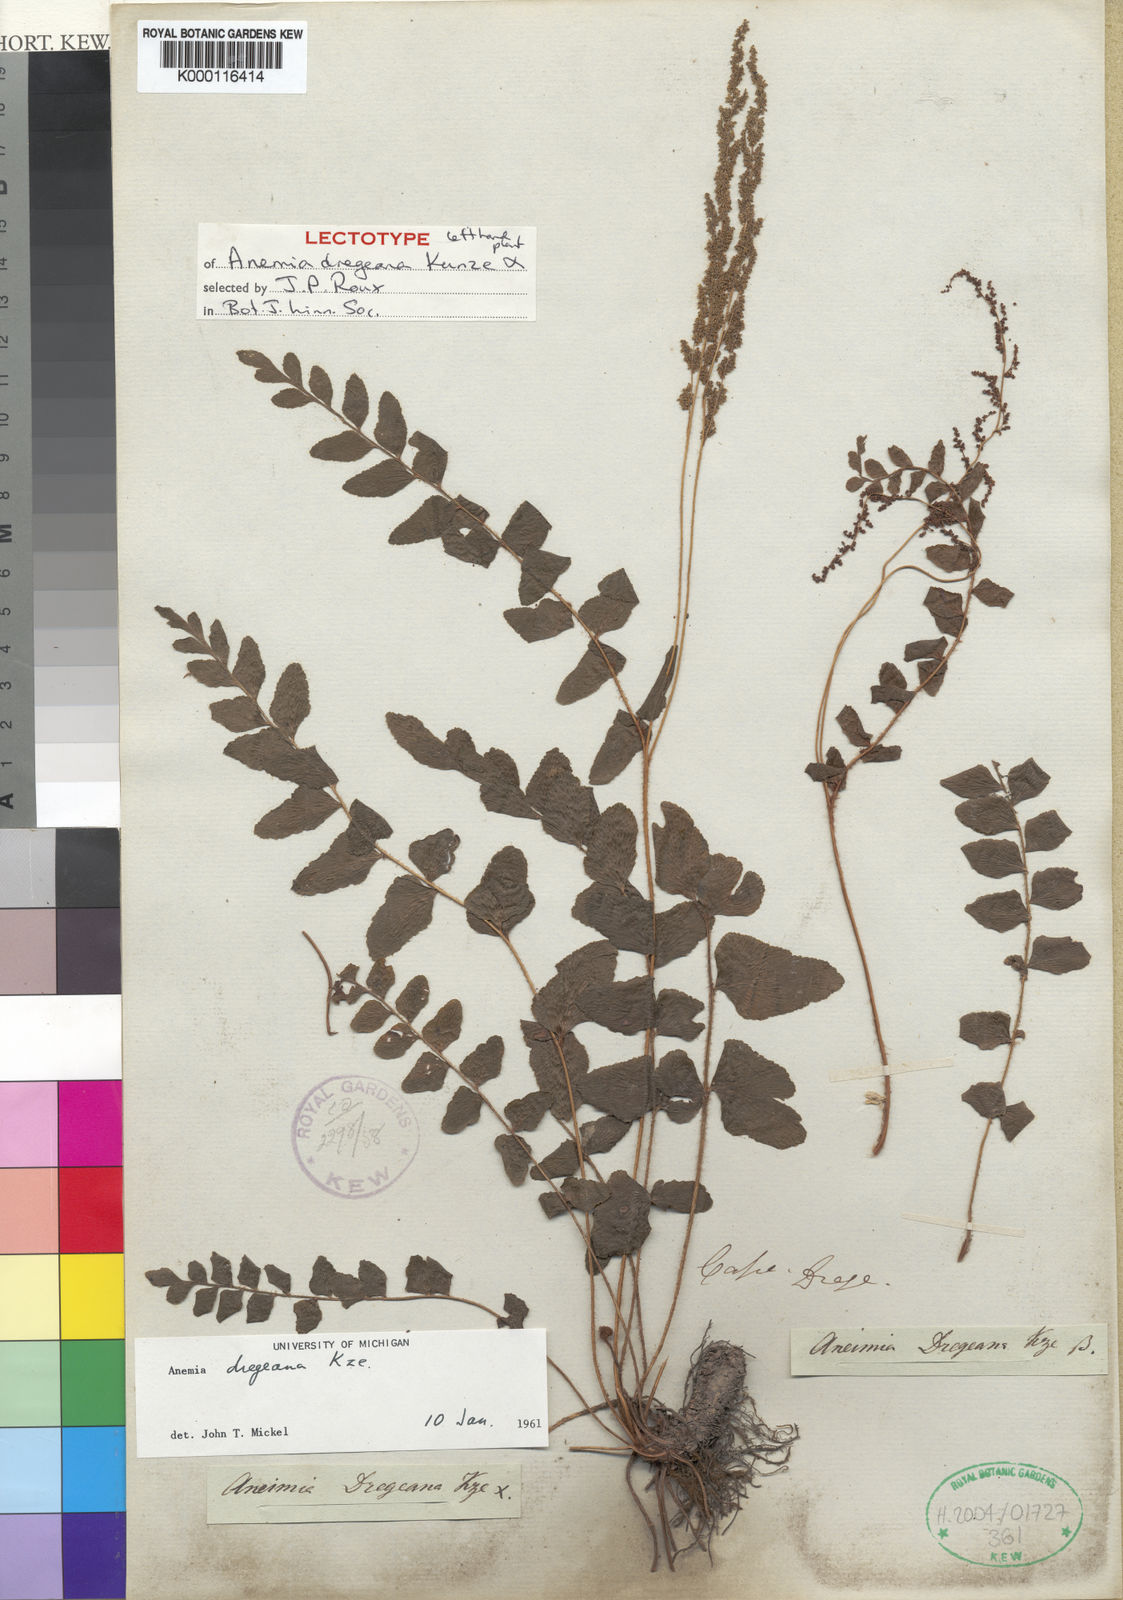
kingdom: Plantae
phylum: Tracheophyta
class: Polypodiopsida
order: Schizaeales
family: Anemiaceae
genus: Anemia
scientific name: Anemia dregeana
